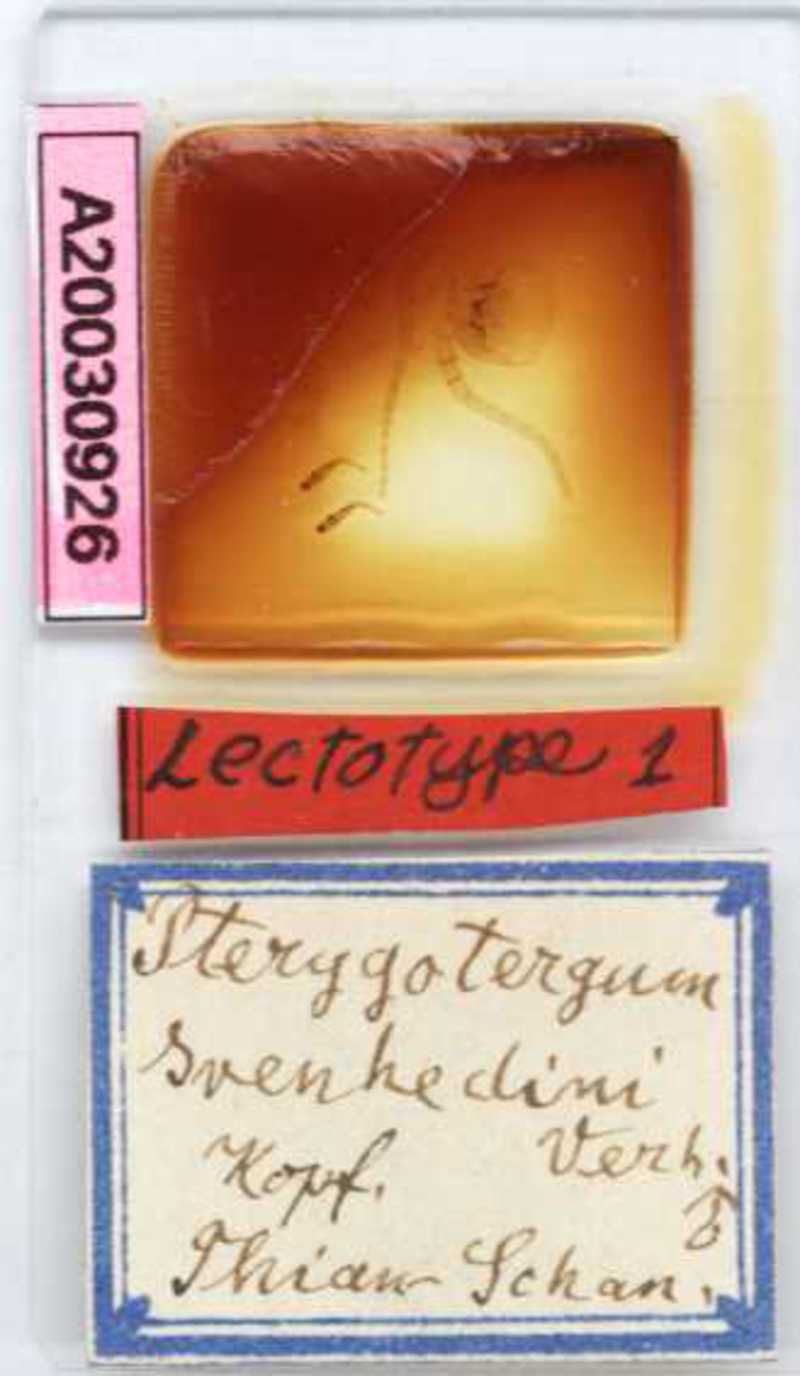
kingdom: Animalia
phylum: Arthropoda
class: Chilopoda
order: Lithobiomorpha
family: Lithobiidae
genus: Pterygotergum
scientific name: Pterygotergum svenhedini
